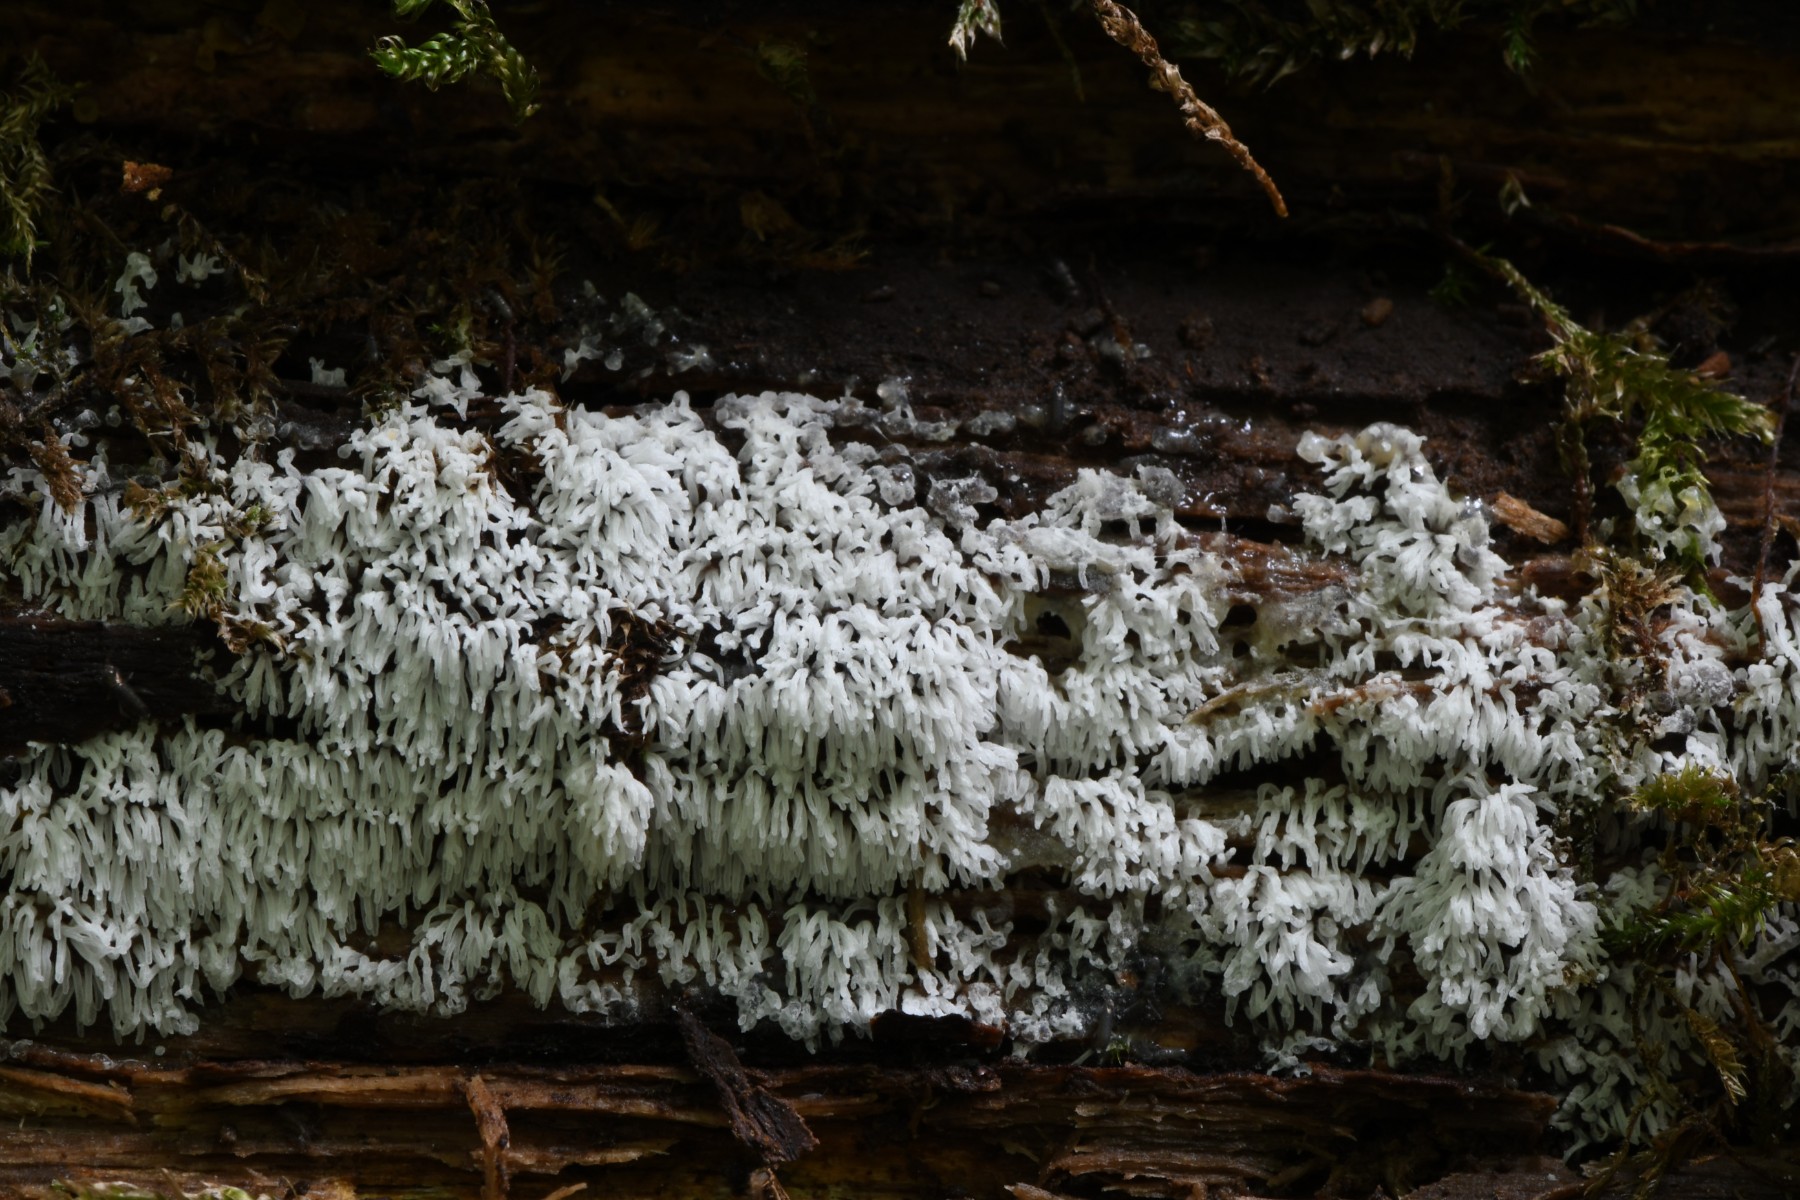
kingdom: Protozoa
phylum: Mycetozoa
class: Protosteliomycetes
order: Ceratiomyxales
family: Ceratiomyxaceae
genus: Ceratiomyxa
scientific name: Ceratiomyxa fruticulosa
